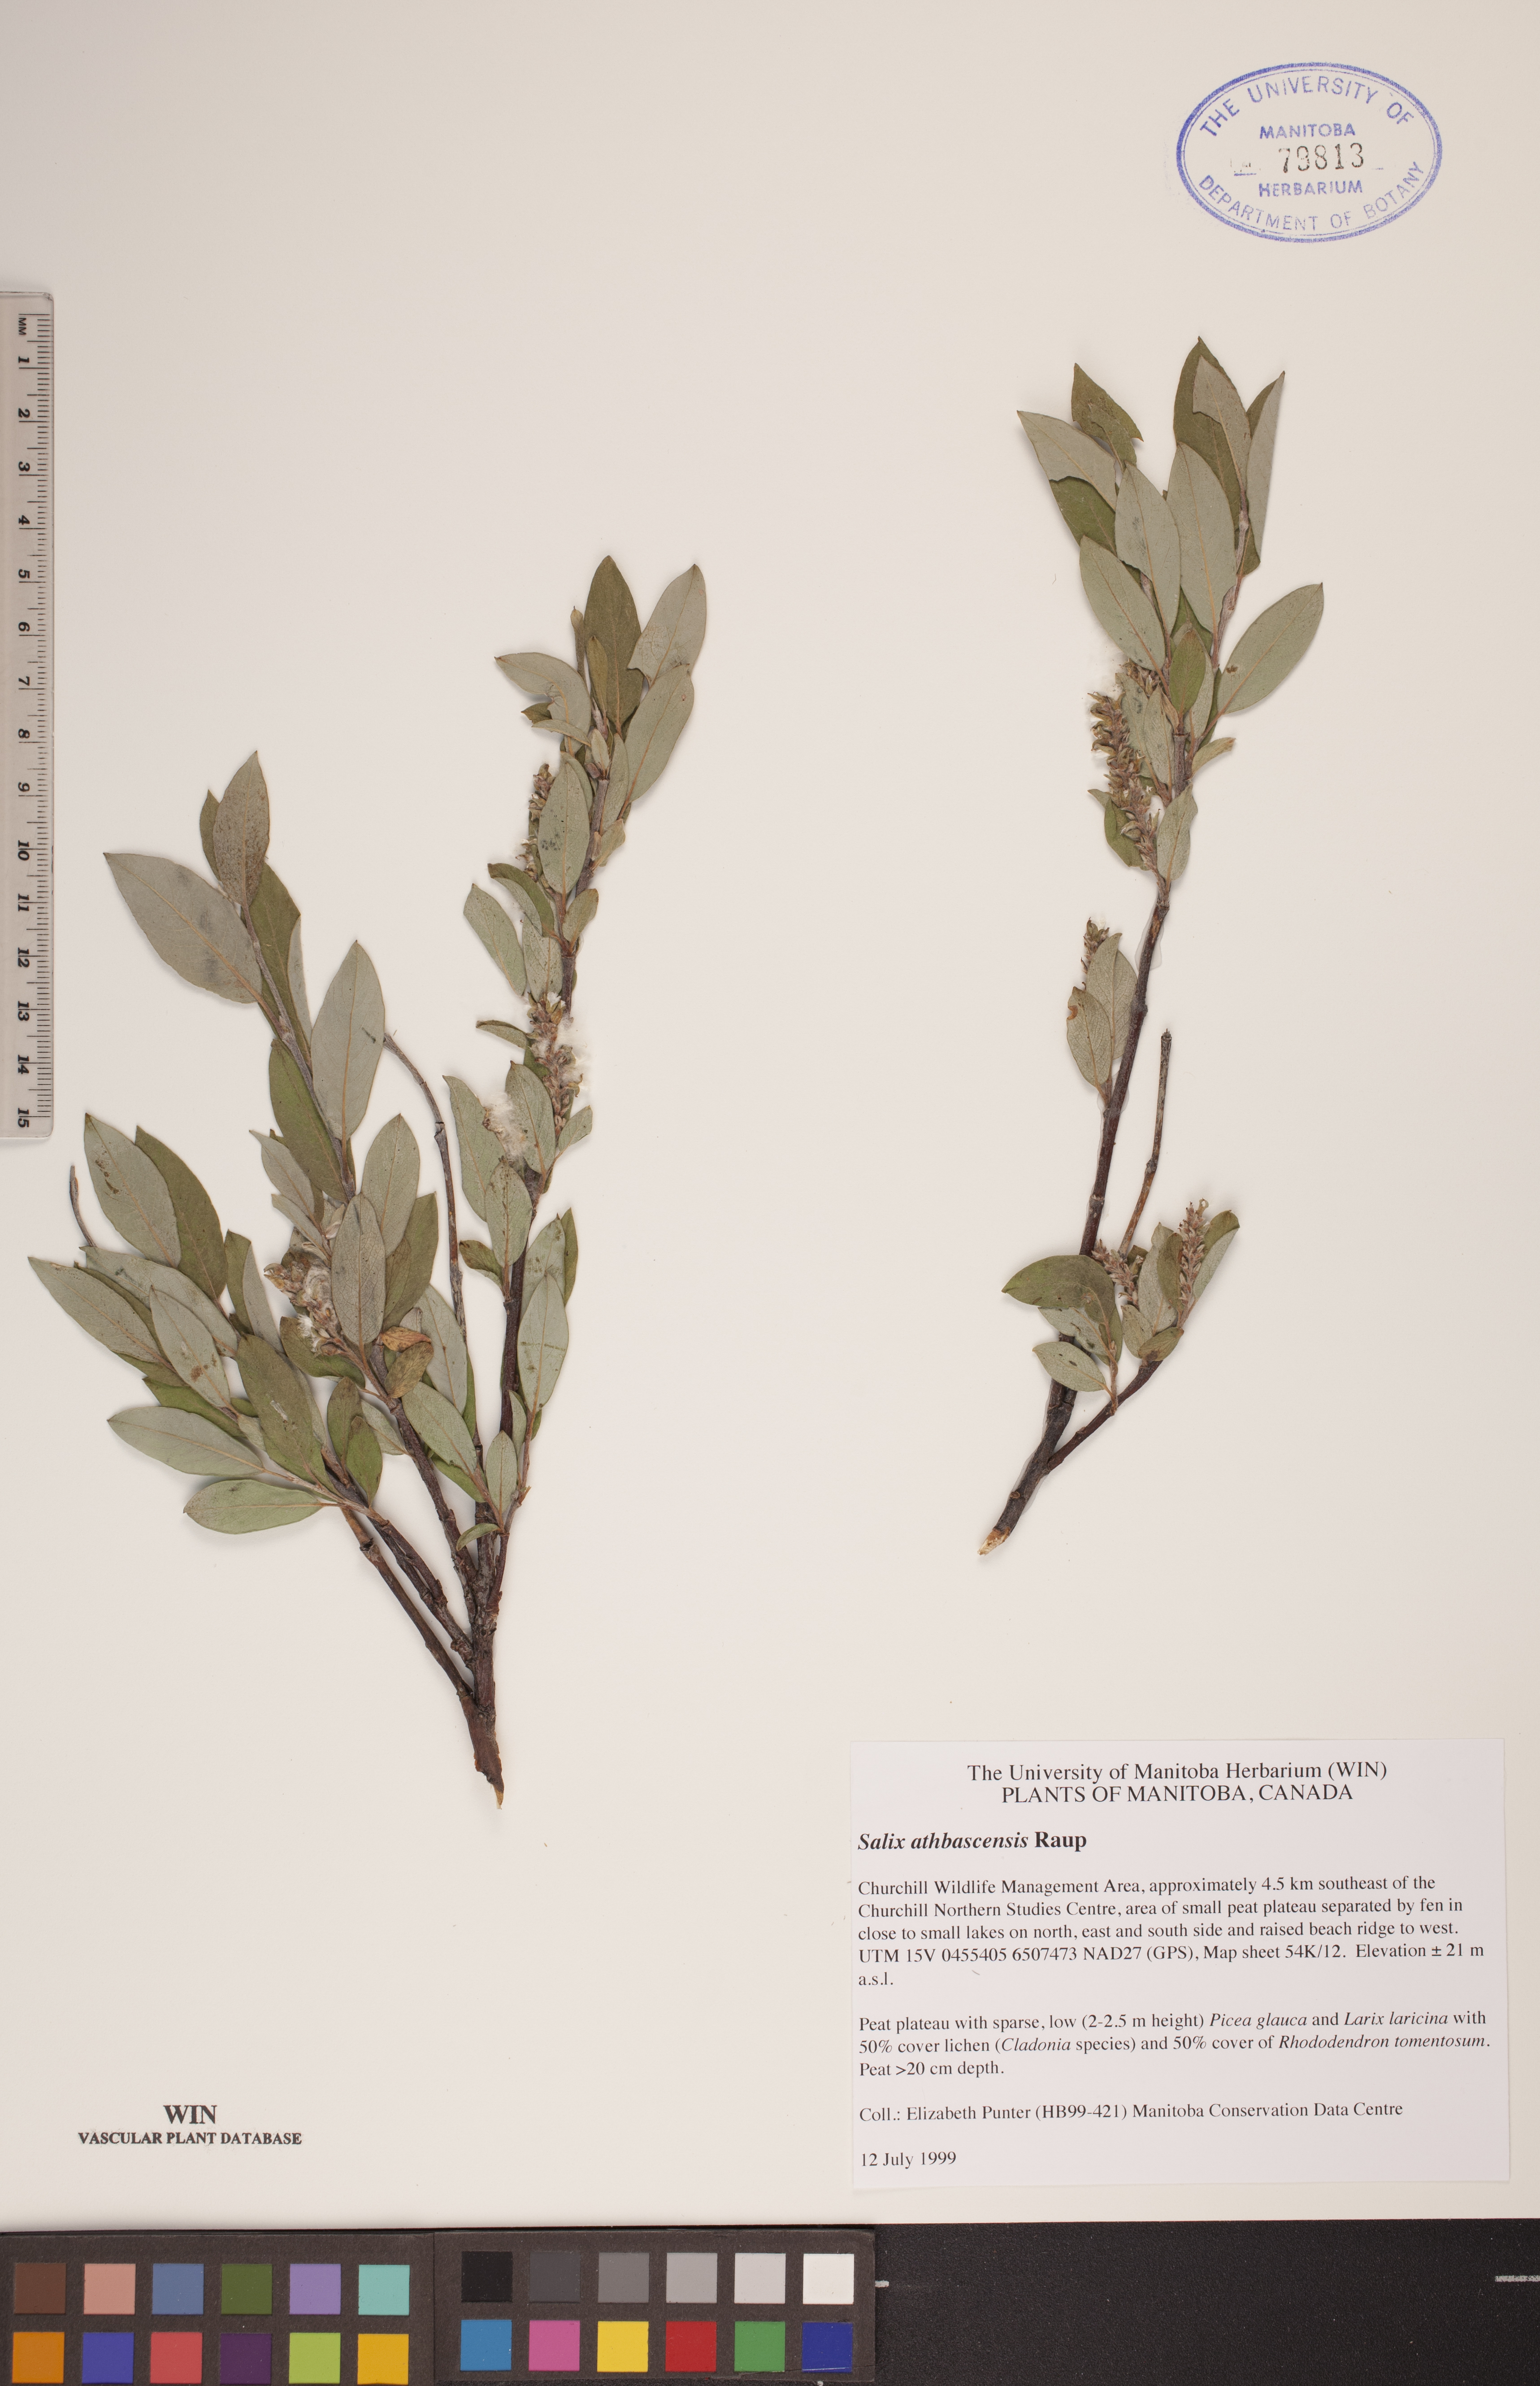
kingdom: Plantae
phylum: Tracheophyta
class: Magnoliopsida
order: Malpighiales
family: Salicaceae
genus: Salix
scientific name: Salix athabascensis
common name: Athabasca willow
